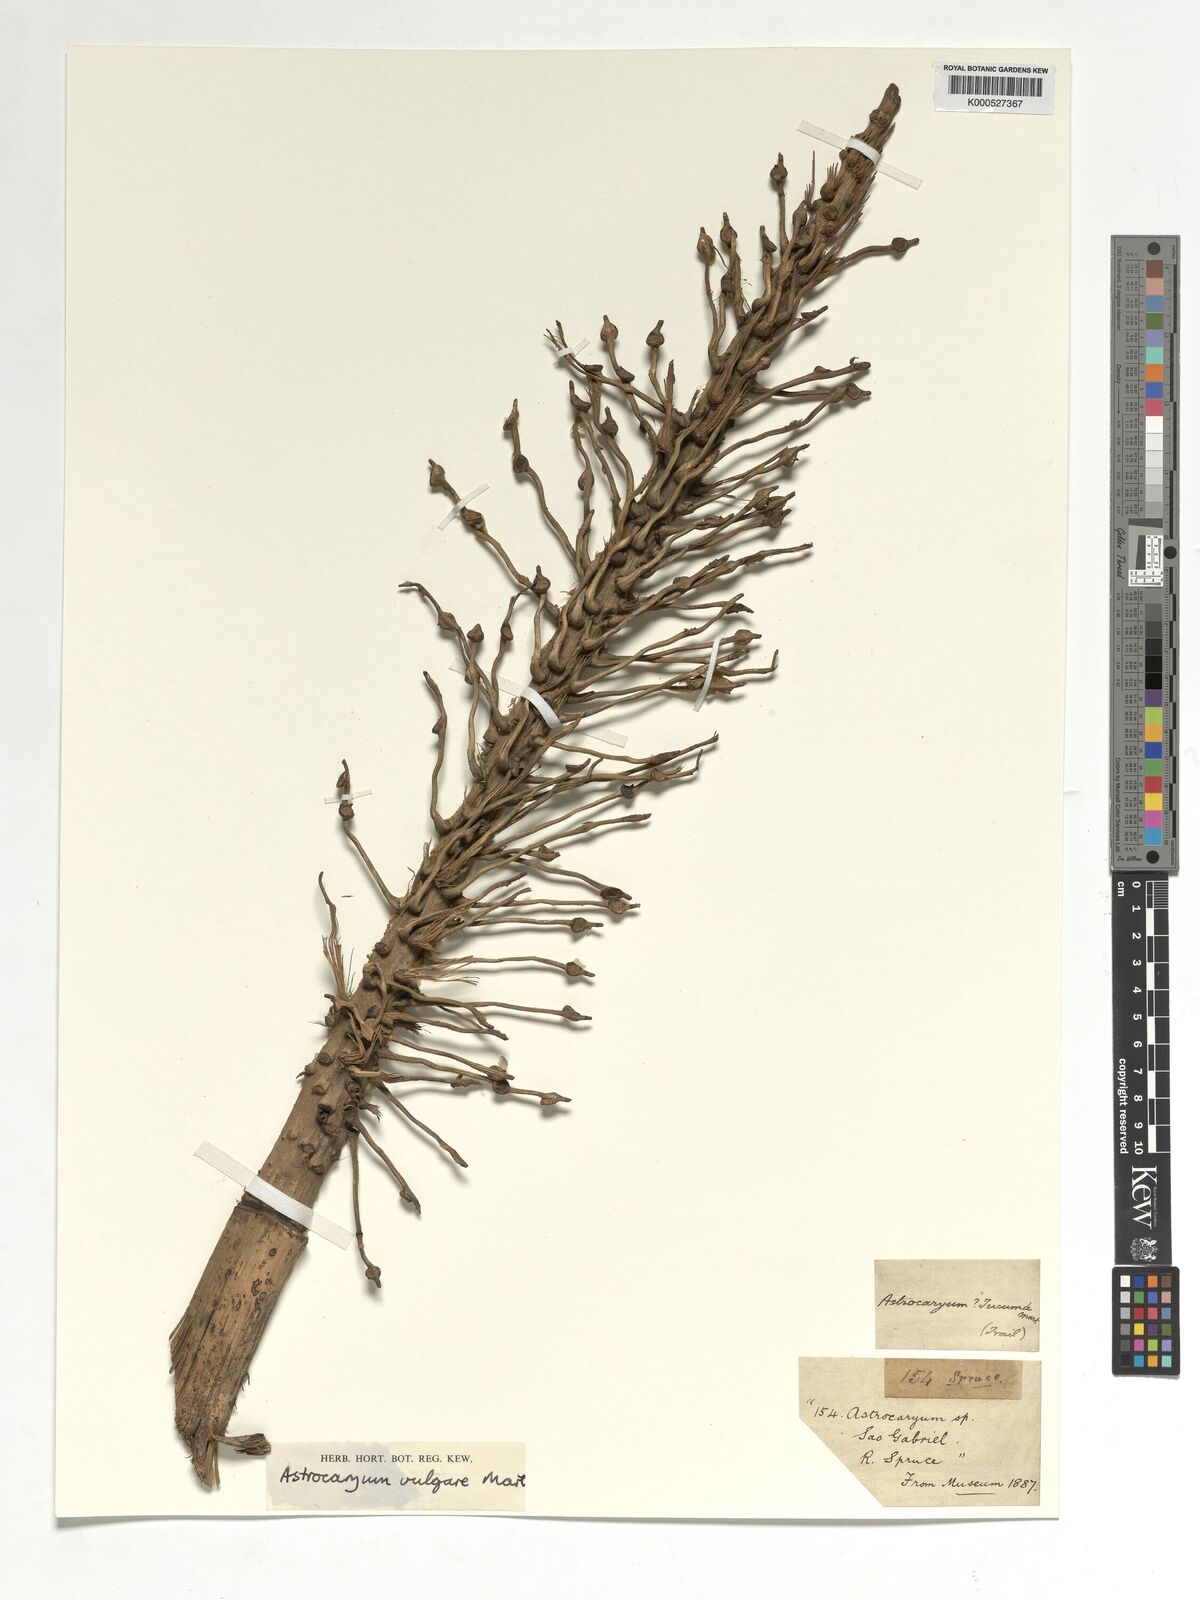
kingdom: Plantae
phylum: Tracheophyta
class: Liliopsida
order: Arecales
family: Arecaceae
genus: Astrocaryum
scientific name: Astrocaryum vulgare
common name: Tucum palm
